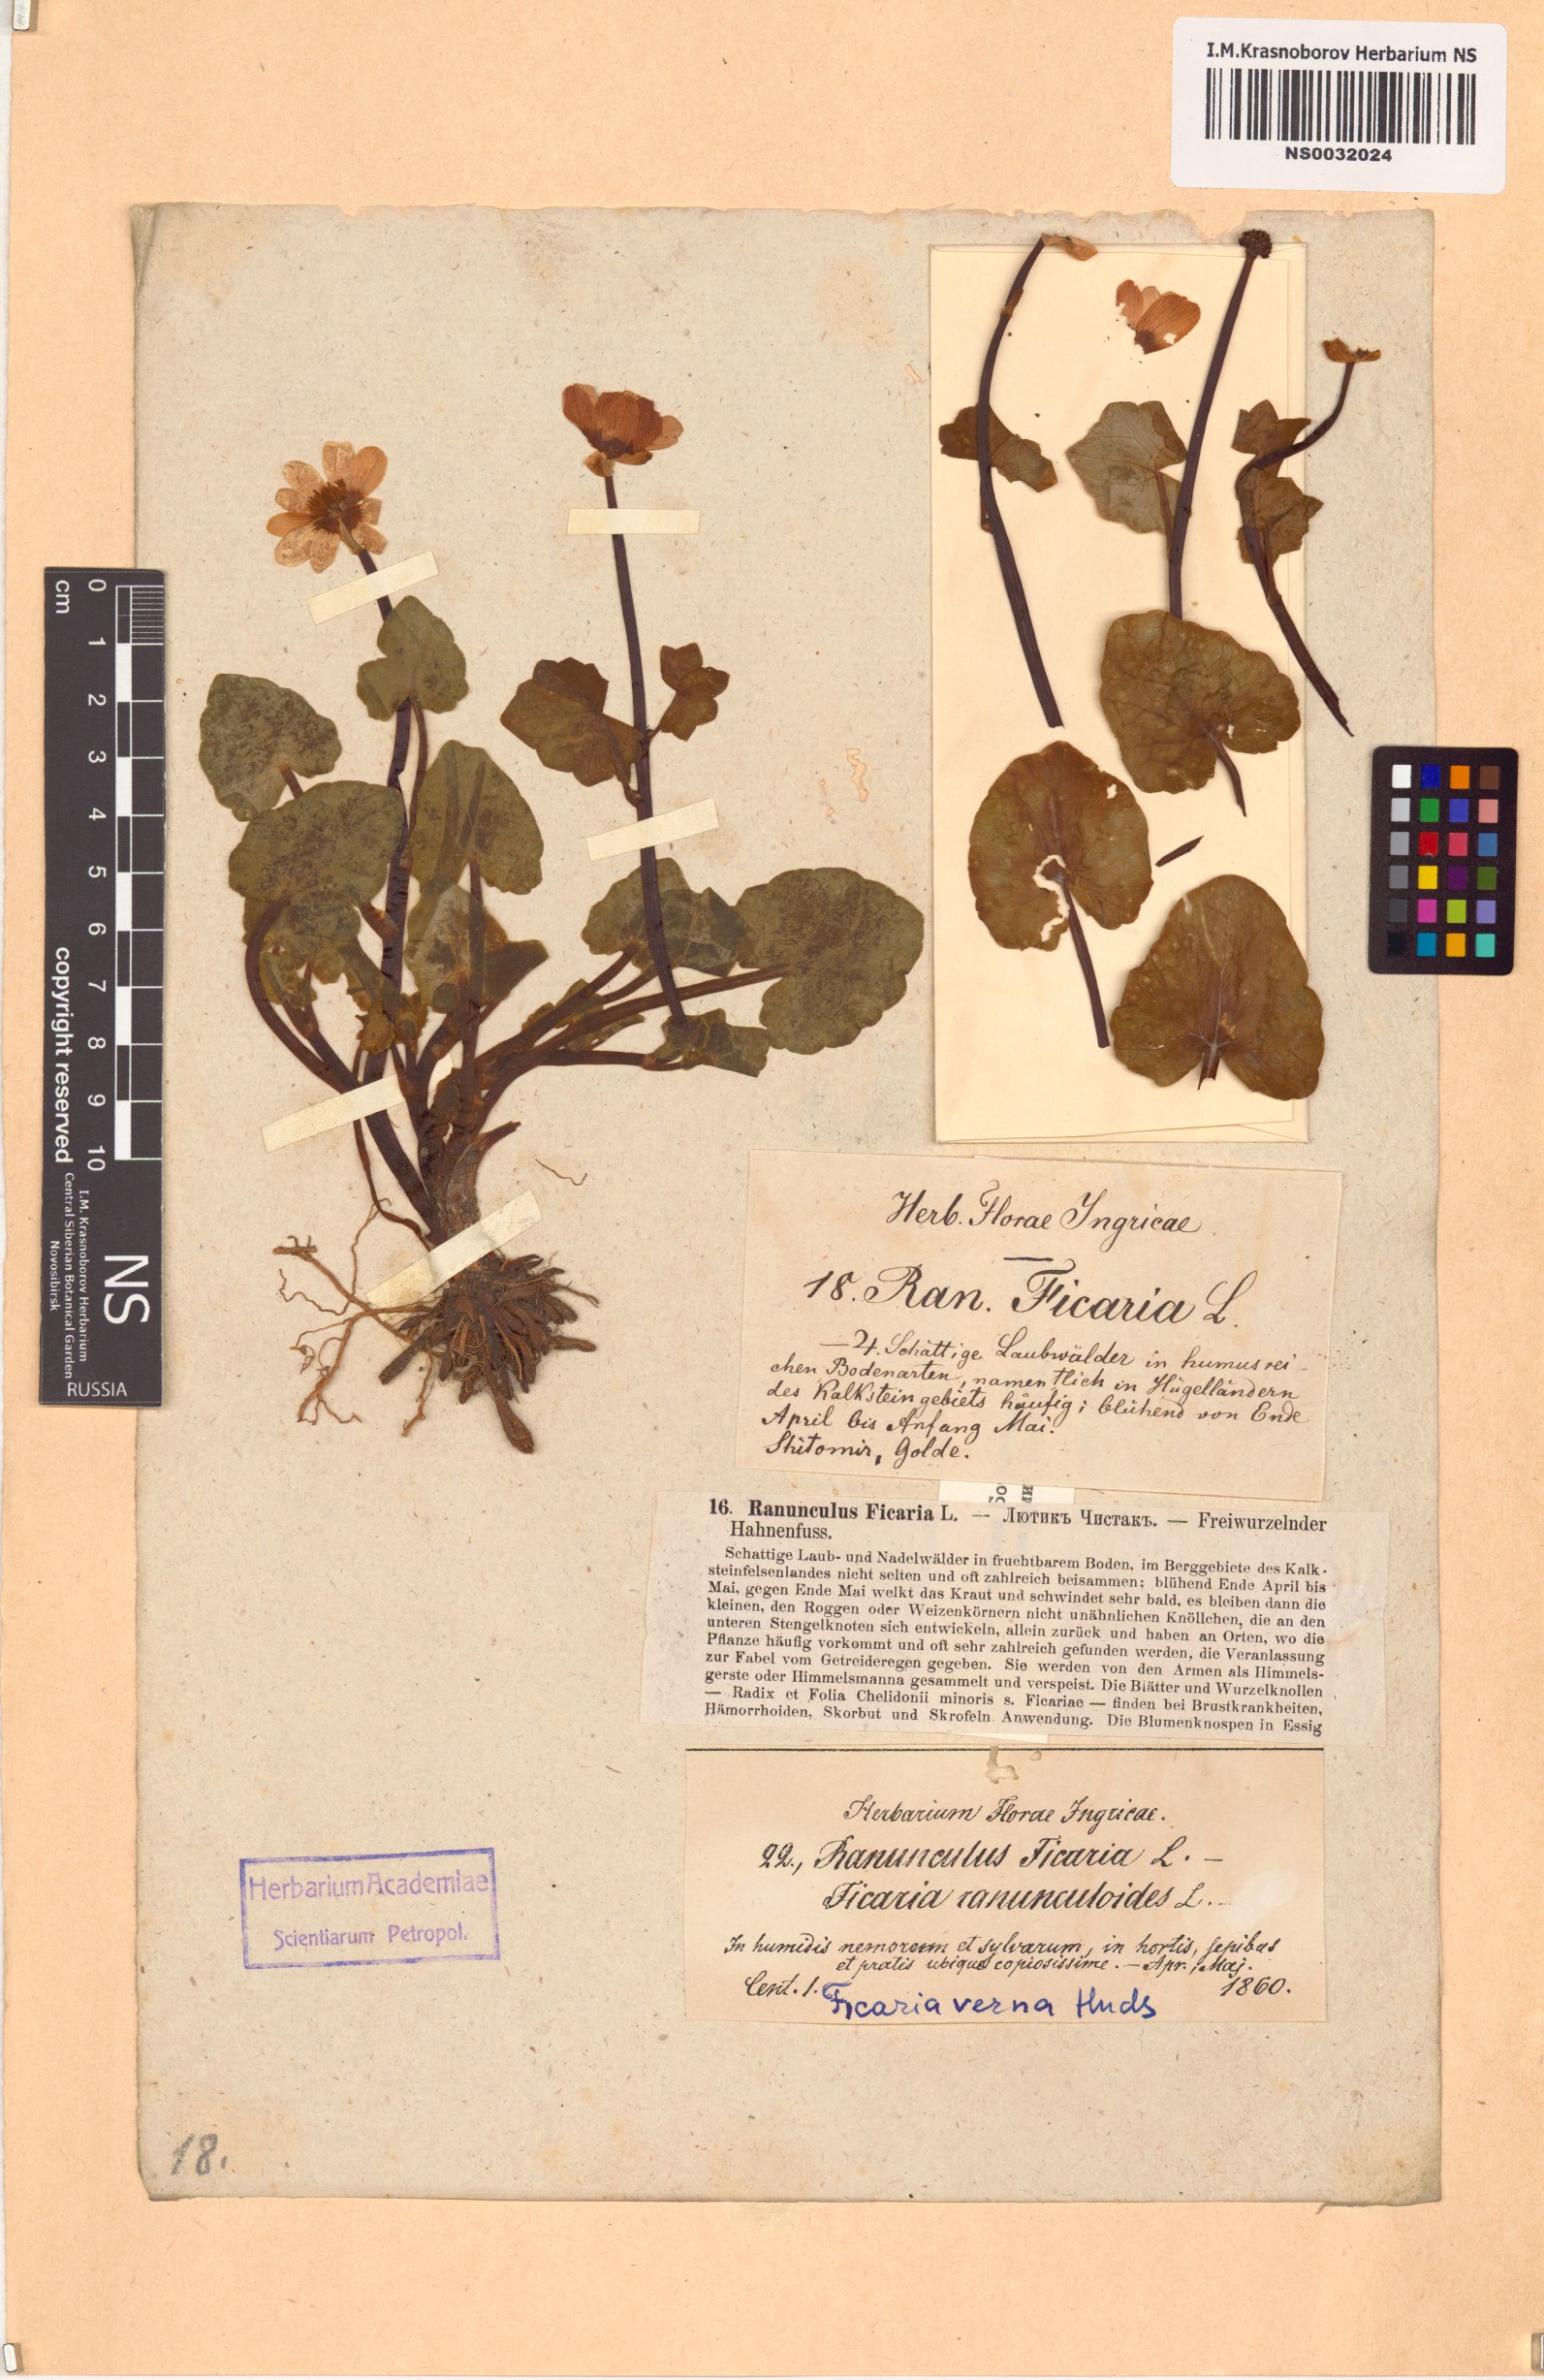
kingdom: Plantae
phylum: Tracheophyta
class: Magnoliopsida
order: Ranunculales
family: Ranunculaceae
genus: Ficaria
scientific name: Ficaria verna
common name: Lesser celandine
